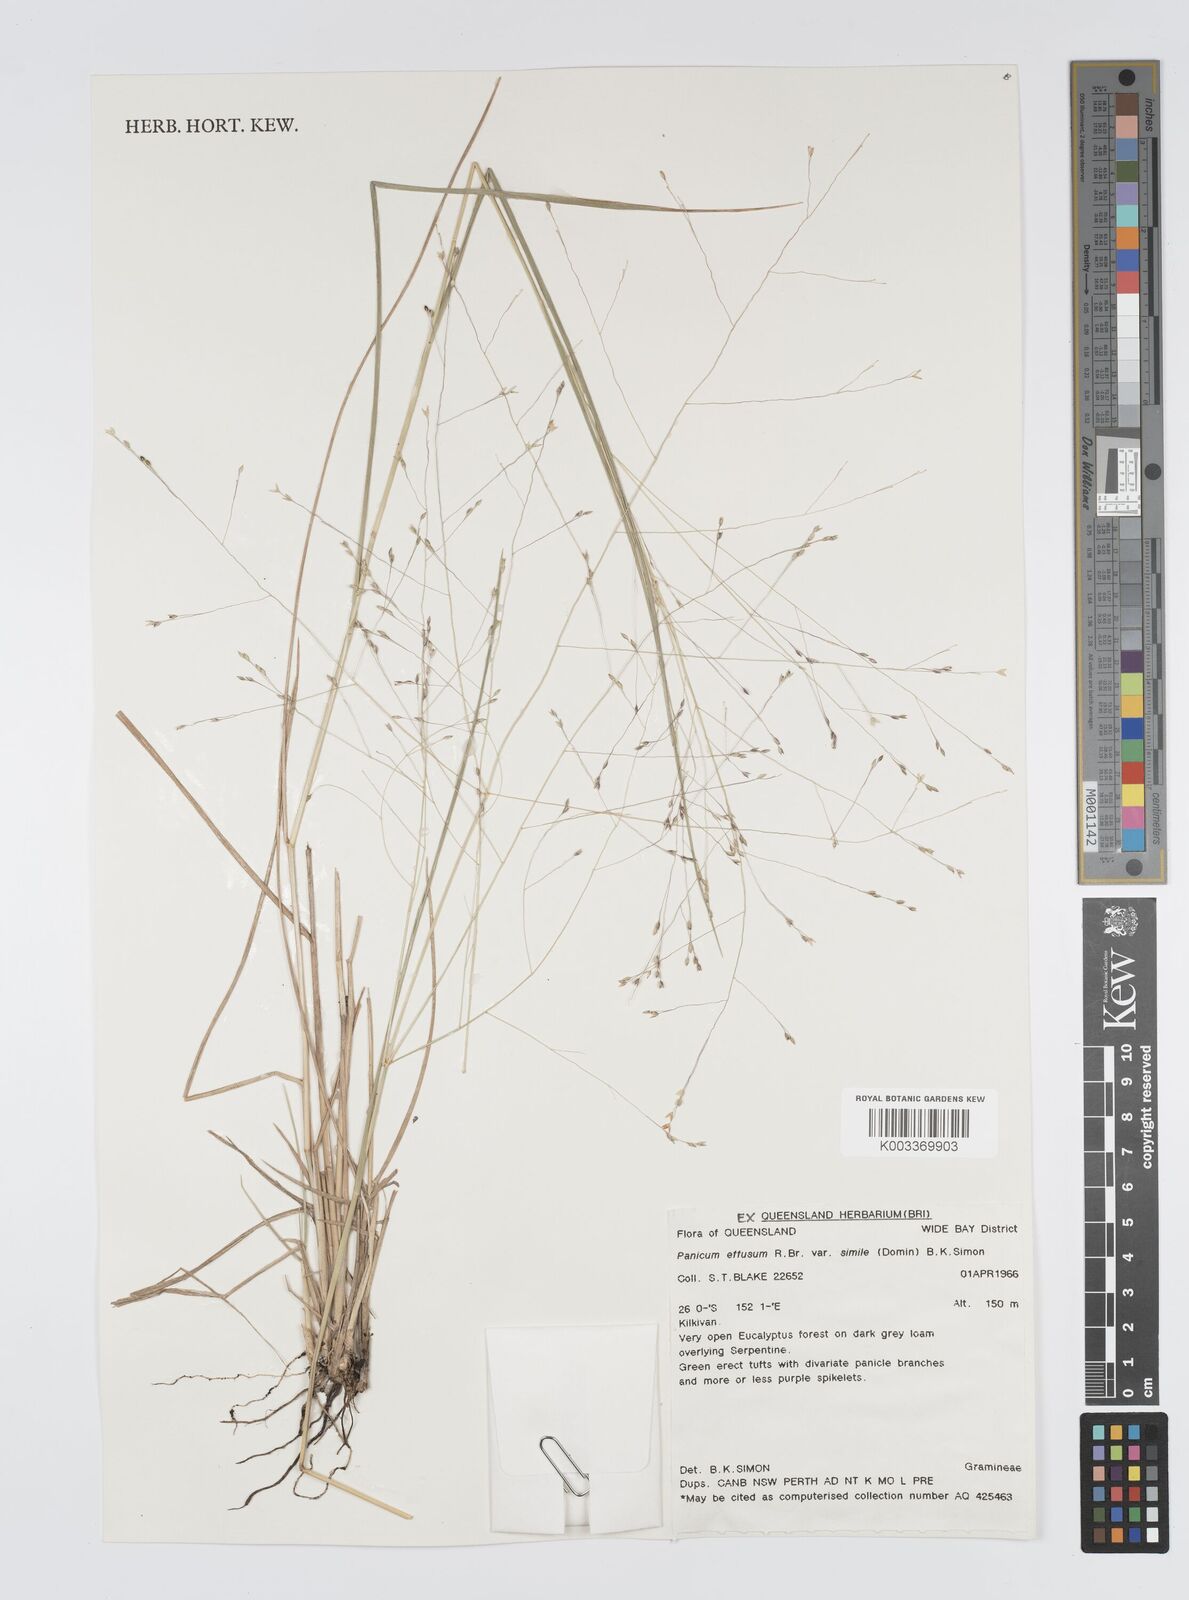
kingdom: Plantae
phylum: Tracheophyta
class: Liliopsida
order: Poales
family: Poaceae
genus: Panicum
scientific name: Panicum effusum
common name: Hairy panic grass
